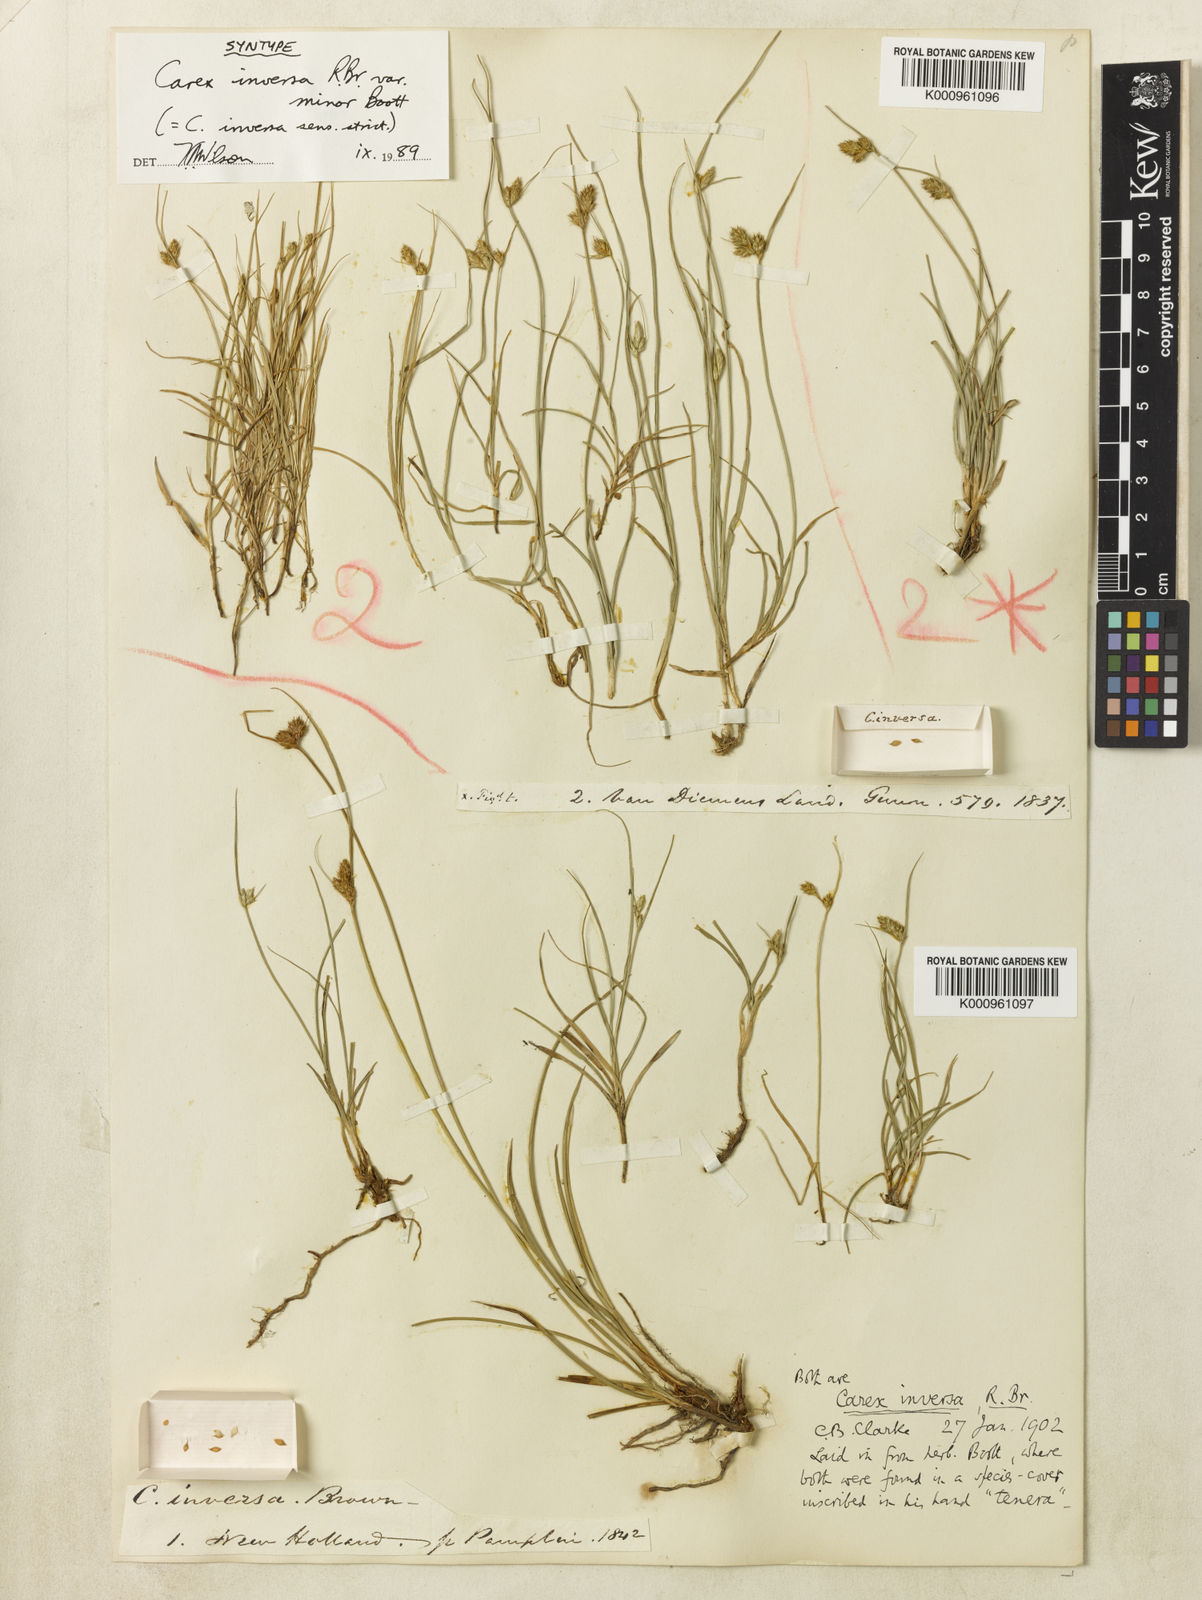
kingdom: Plantae
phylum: Tracheophyta
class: Liliopsida
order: Poales
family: Cyperaceae
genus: Carex
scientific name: Carex inversa
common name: Knob sedge
